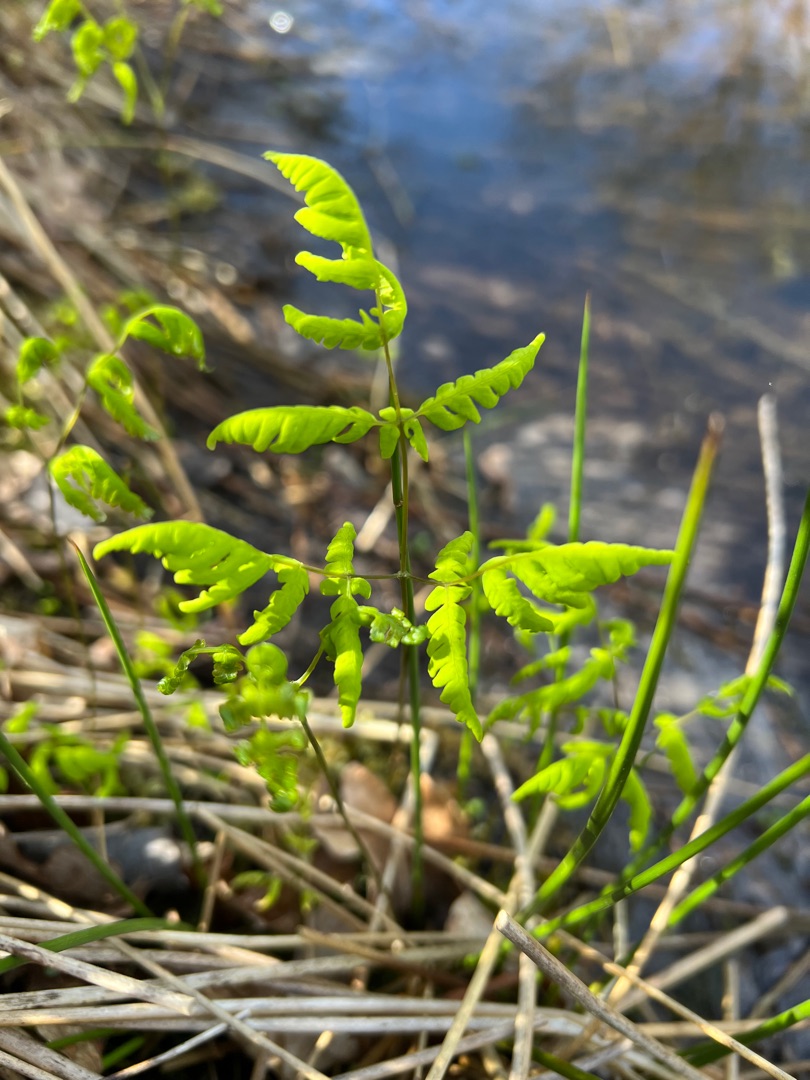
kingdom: Plantae
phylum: Tracheophyta
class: Polypodiopsida
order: Polypodiales
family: Cystopteridaceae
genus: Gymnocarpium
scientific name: Gymnocarpium dryopteris
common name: Tredelt egebregne
